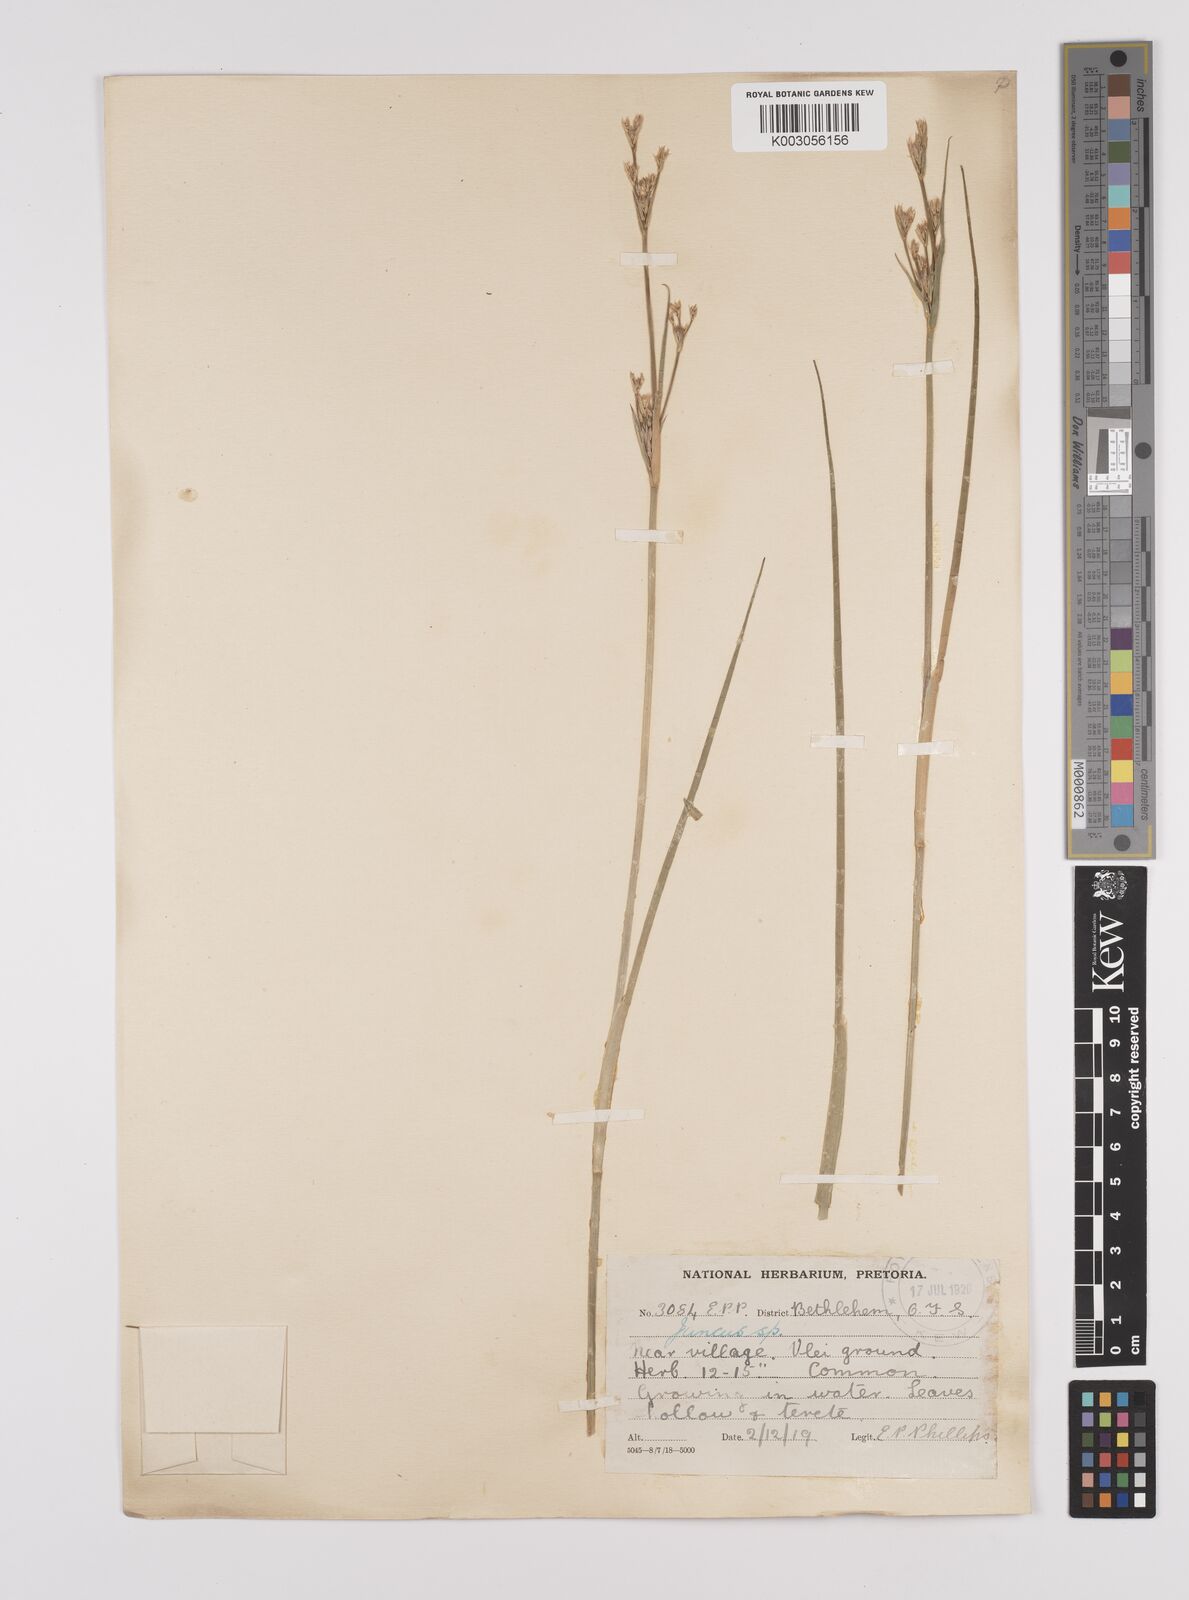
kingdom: Plantae
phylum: Tracheophyta
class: Liliopsida
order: Poales
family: Juncaceae
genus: Juncus
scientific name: Juncus
